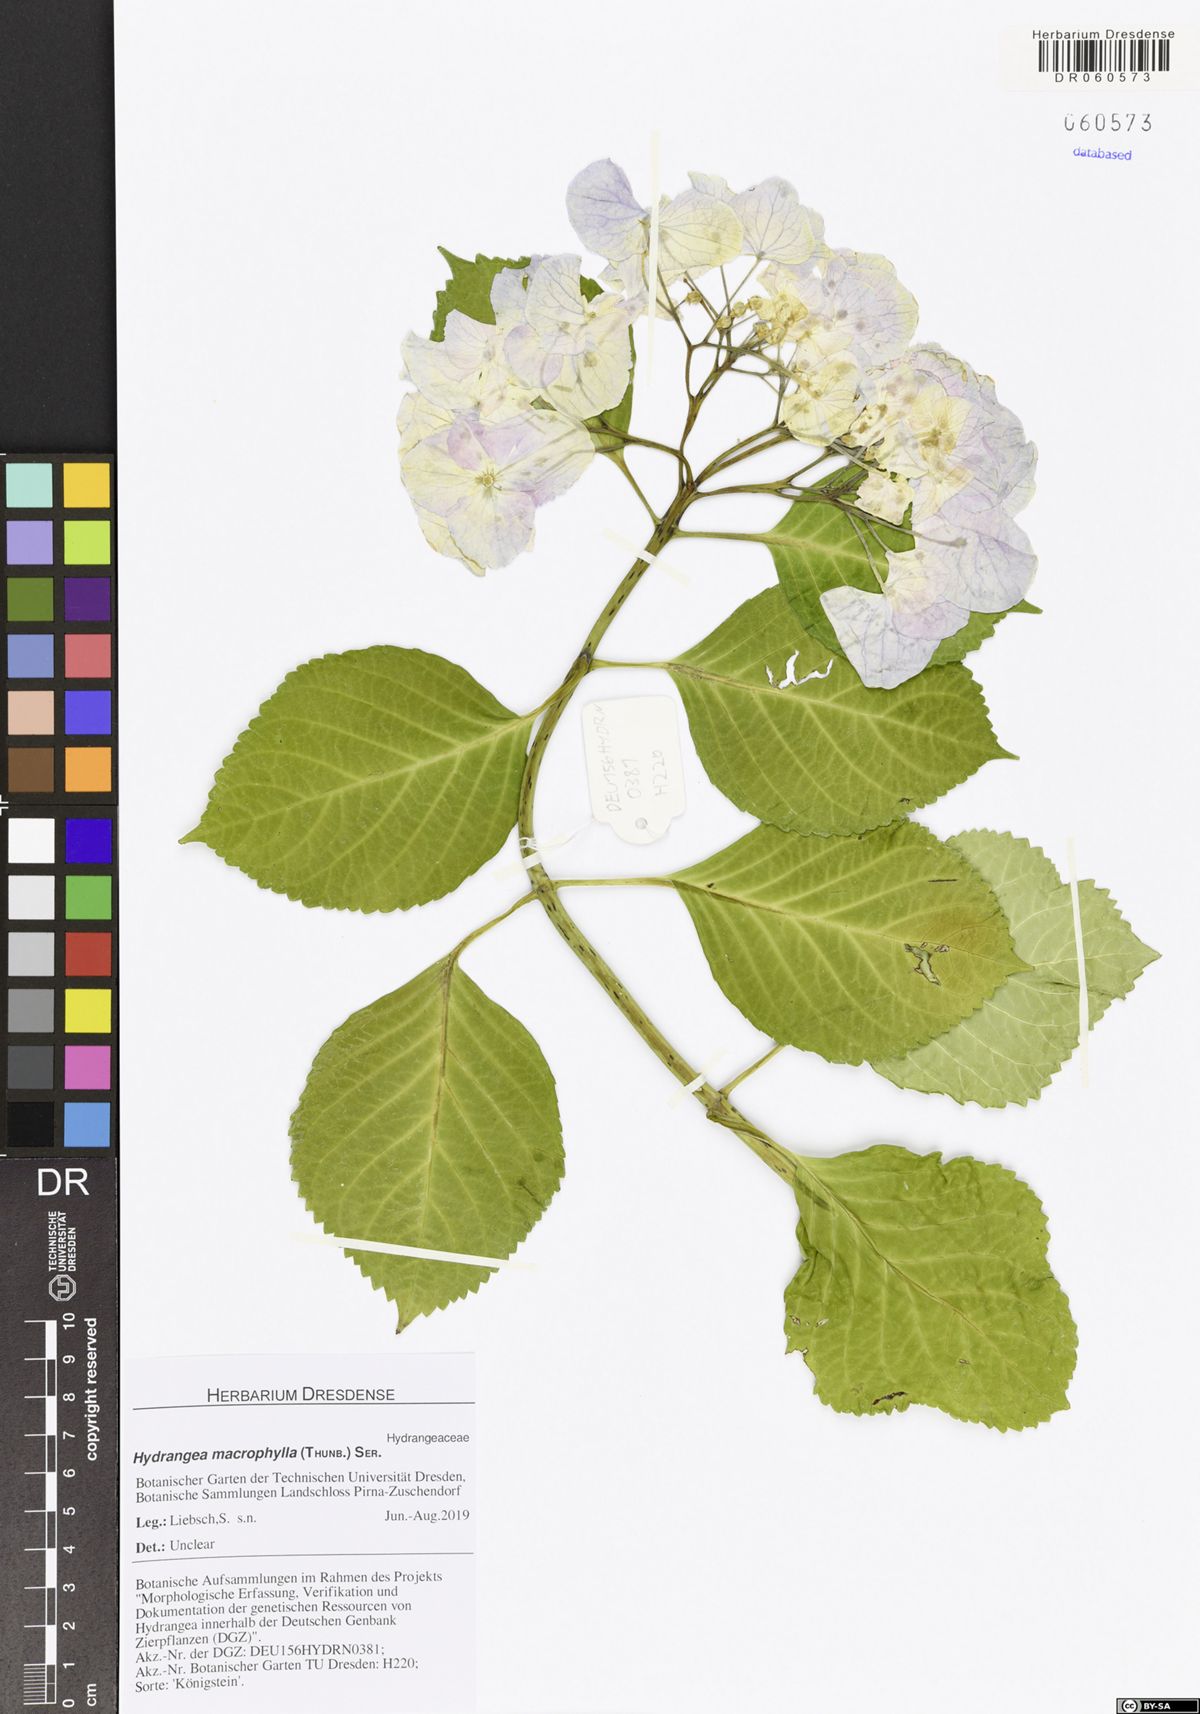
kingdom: Plantae
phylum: Tracheophyta
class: Magnoliopsida
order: Cornales
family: Hydrangeaceae
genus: Hydrangea
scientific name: Hydrangea macrophylla
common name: Hydrangea
